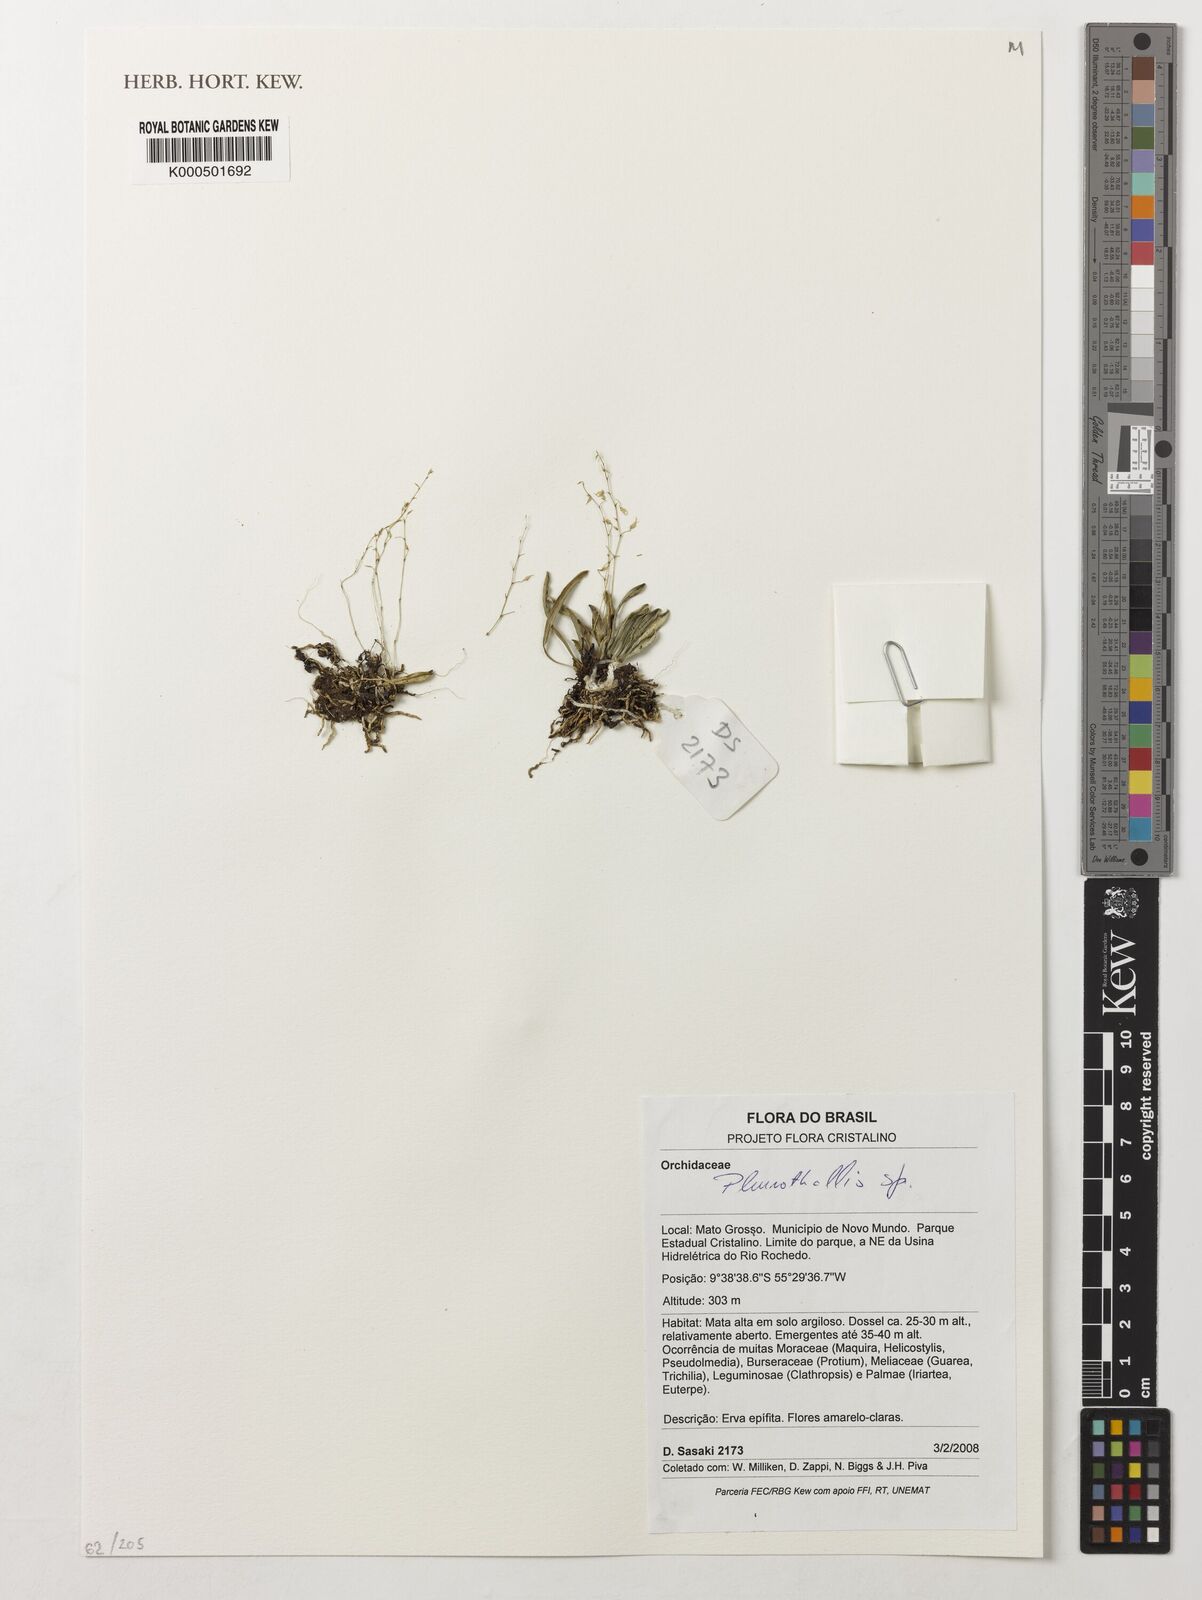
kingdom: Plantae
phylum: Tracheophyta
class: Liliopsida
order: Asparagales
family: Orchidaceae
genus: Pleurothallis
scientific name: Pleurothallis
